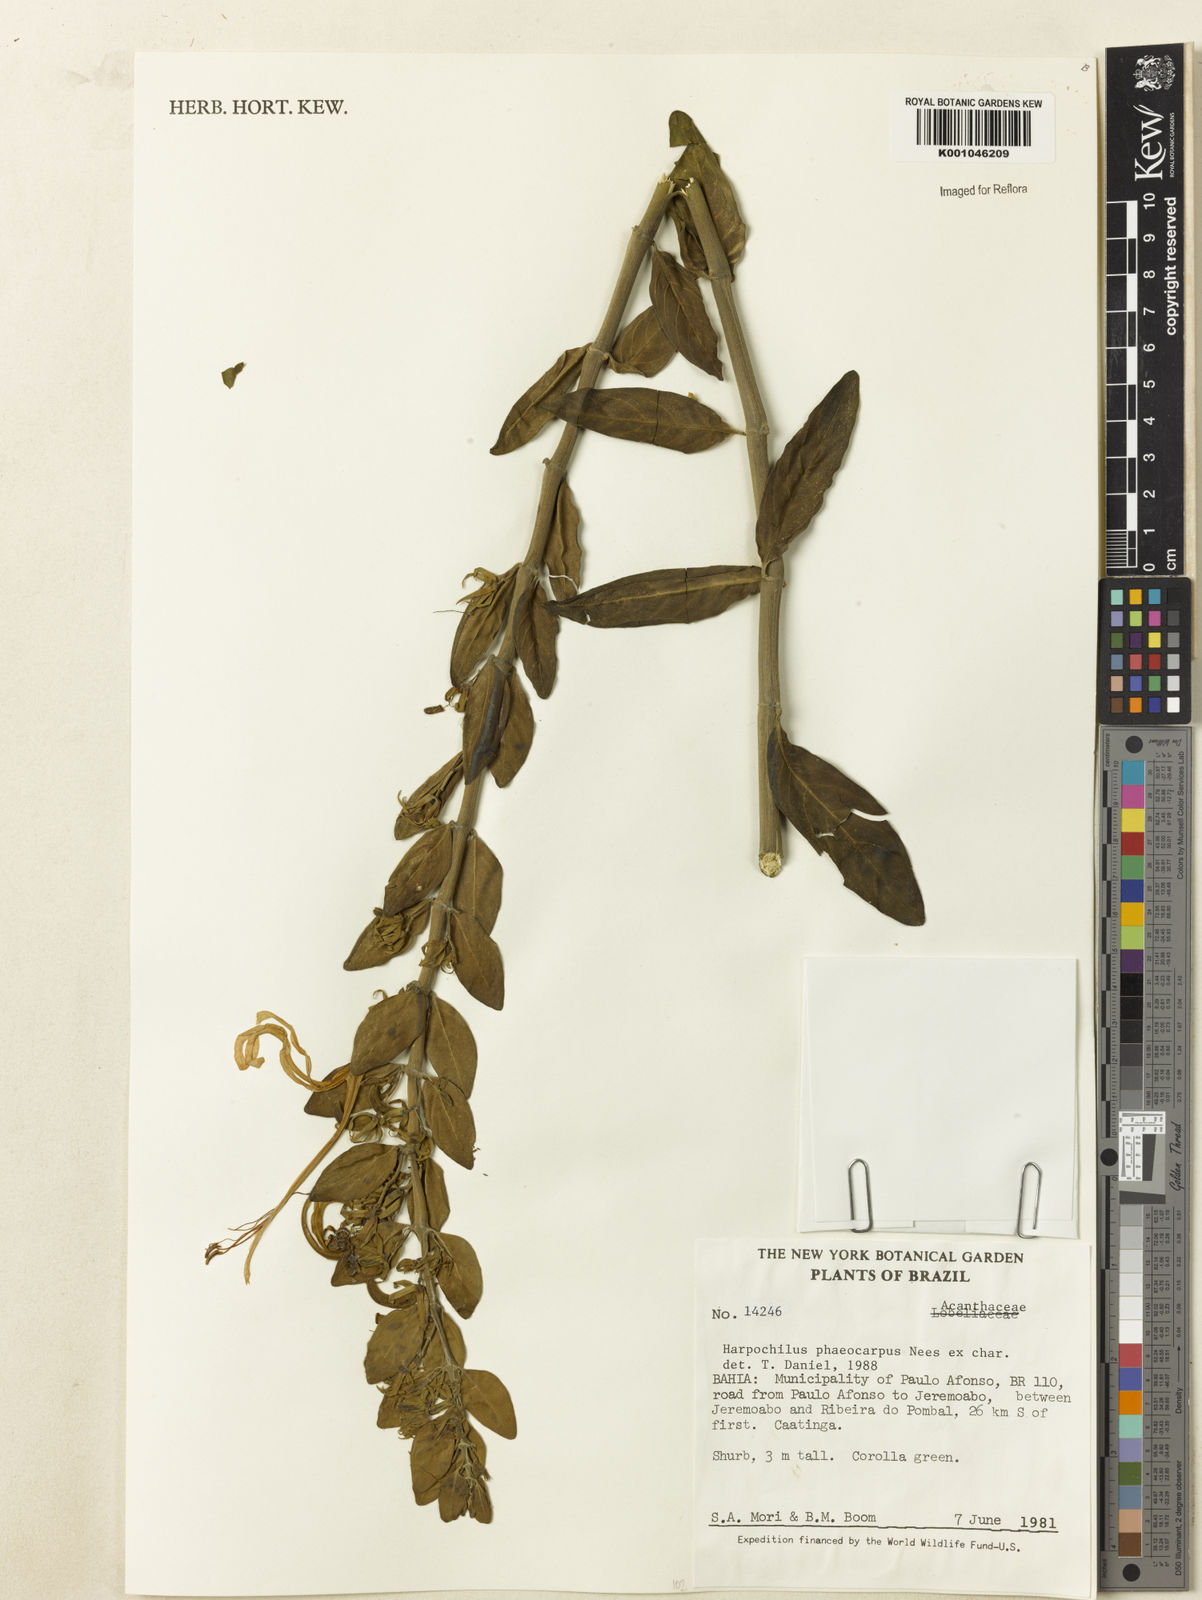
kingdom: Plantae
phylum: Tracheophyta
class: Magnoliopsida
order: Lamiales
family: Acanthaceae
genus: Harpochilus
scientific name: Harpochilus neesianus
